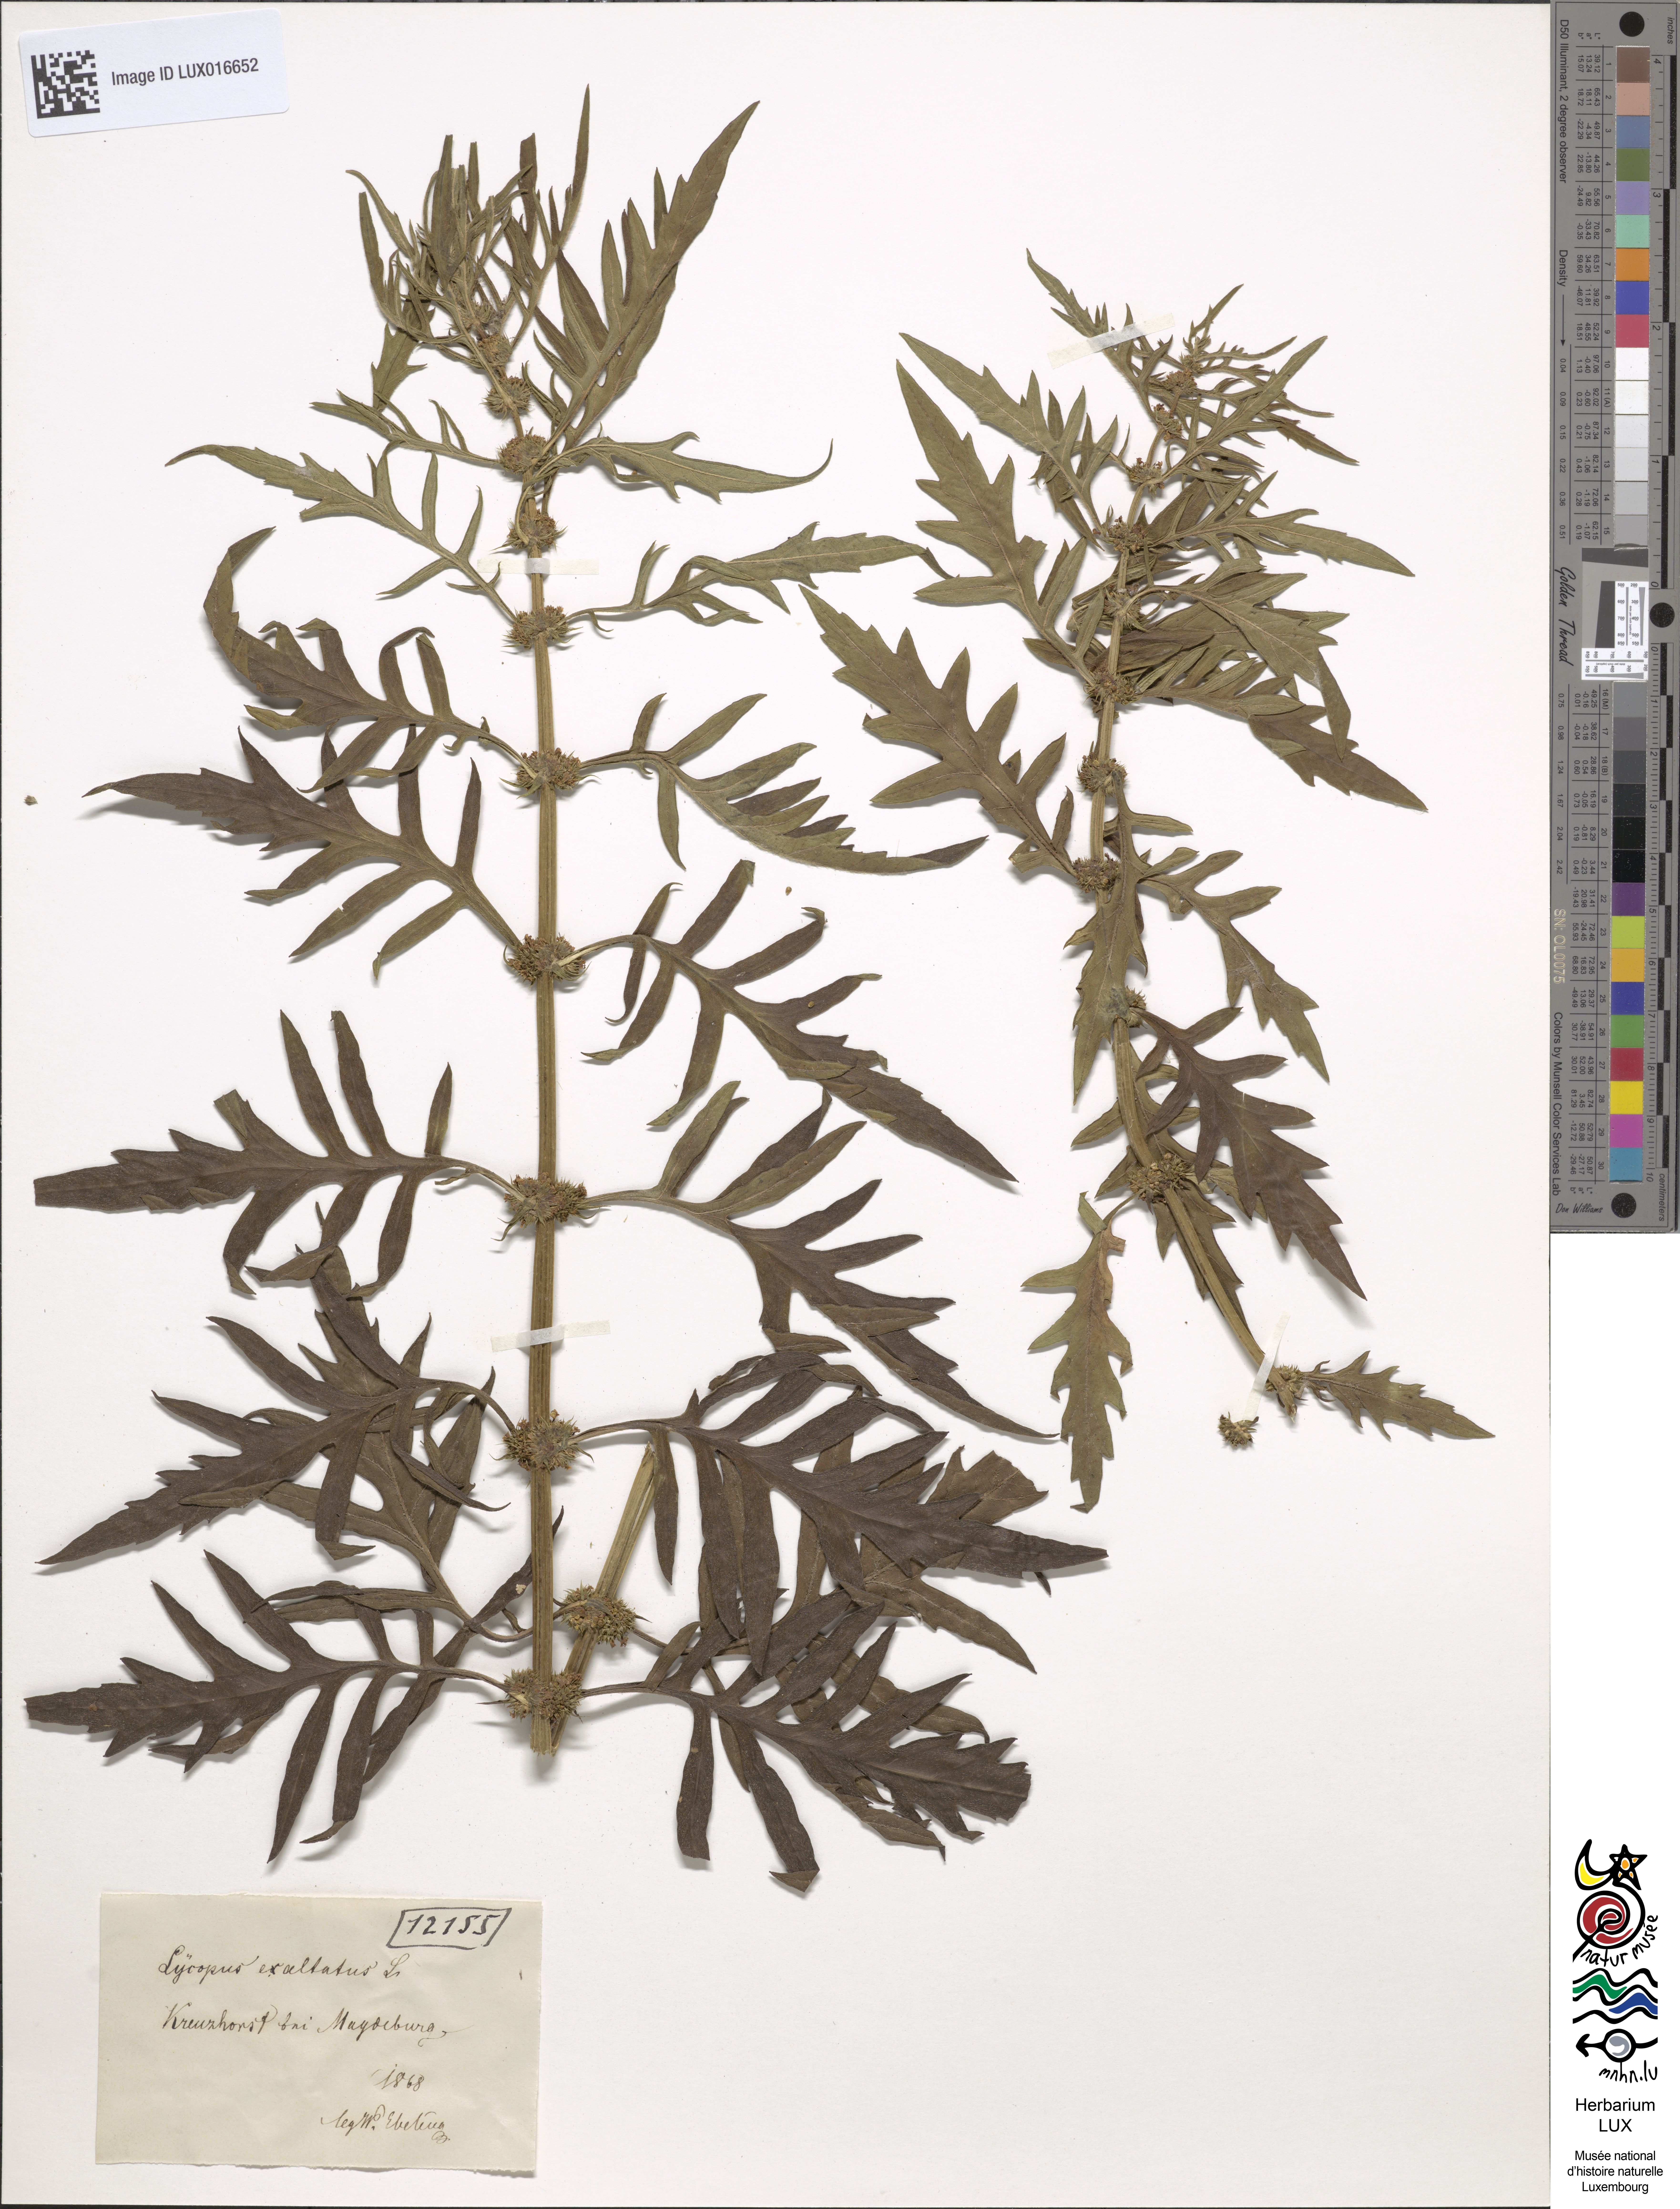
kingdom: Plantae
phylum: Tracheophyta
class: Magnoliopsida
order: Lamiales
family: Lamiaceae
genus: Lycopus
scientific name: Lycopus exaltatus
